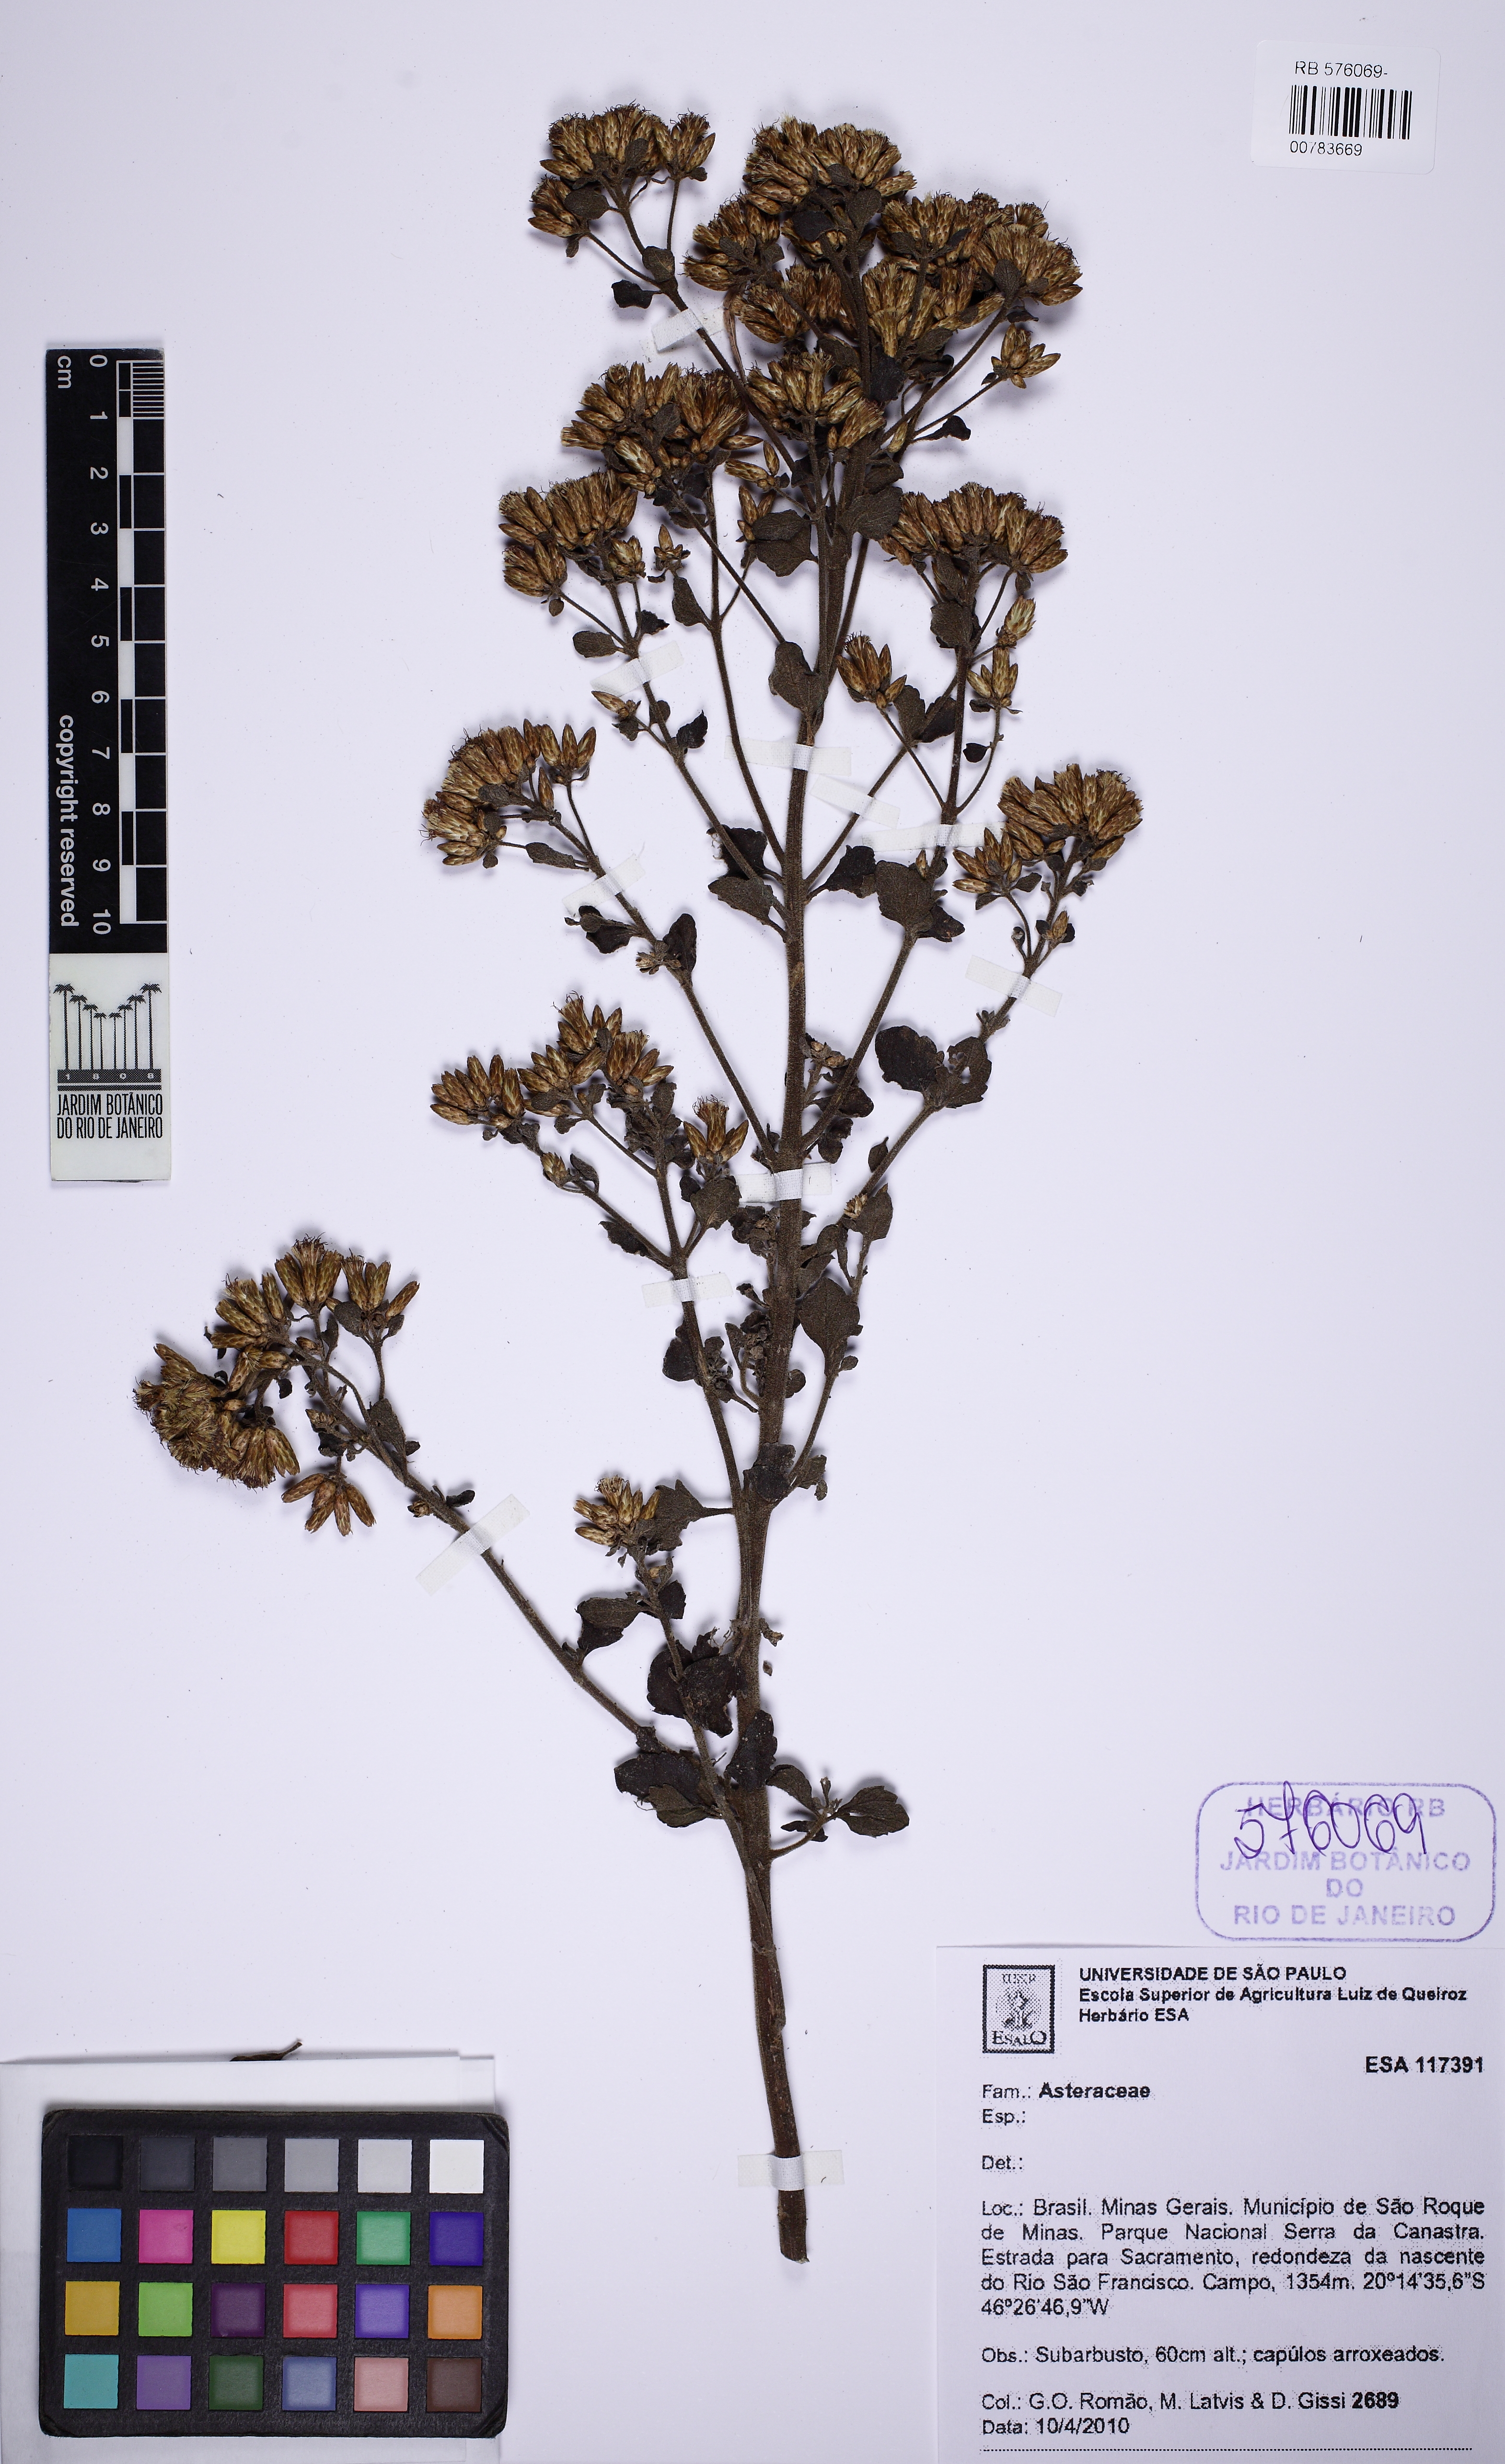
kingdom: Plantae
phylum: Tracheophyta
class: Magnoliopsida
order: Asterales
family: Asteraceae
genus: Chromolaena
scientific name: Chromolaena squalida
